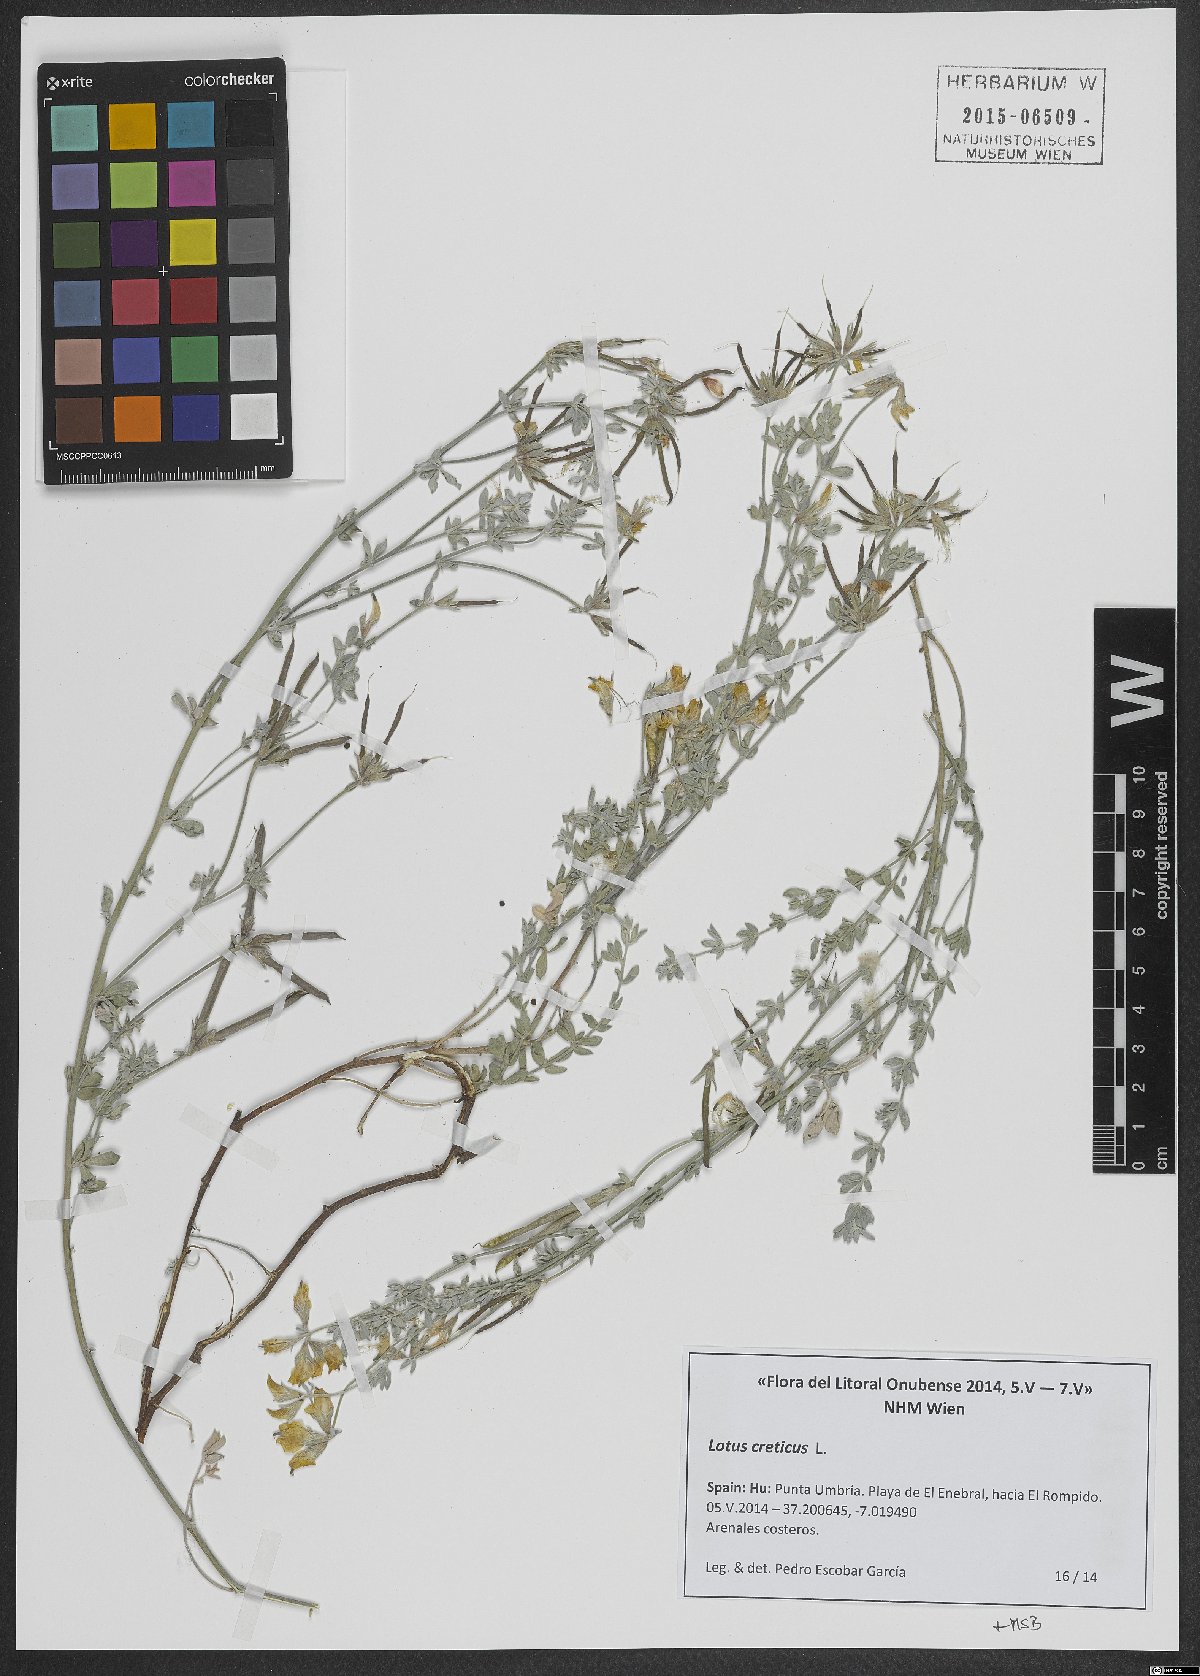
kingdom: Plantae
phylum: Tracheophyta
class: Magnoliopsida
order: Fabales
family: Fabaceae
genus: Lotus
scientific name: Lotus creticus
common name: Cretan bird's-foot trefoil
